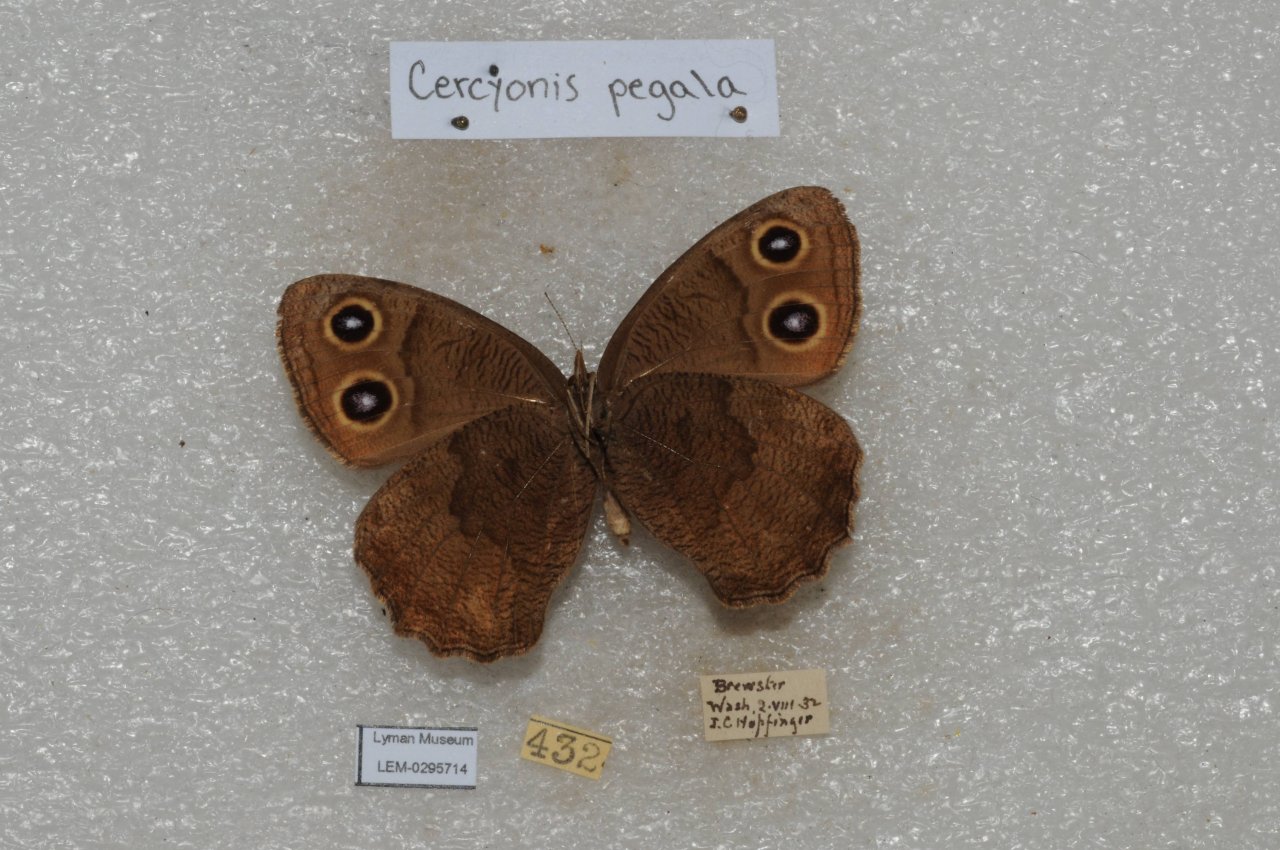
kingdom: Animalia
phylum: Arthropoda
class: Insecta
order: Lepidoptera
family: Nymphalidae
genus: Cercyonis
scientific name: Cercyonis pegala
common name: Common Wood-Nymph
